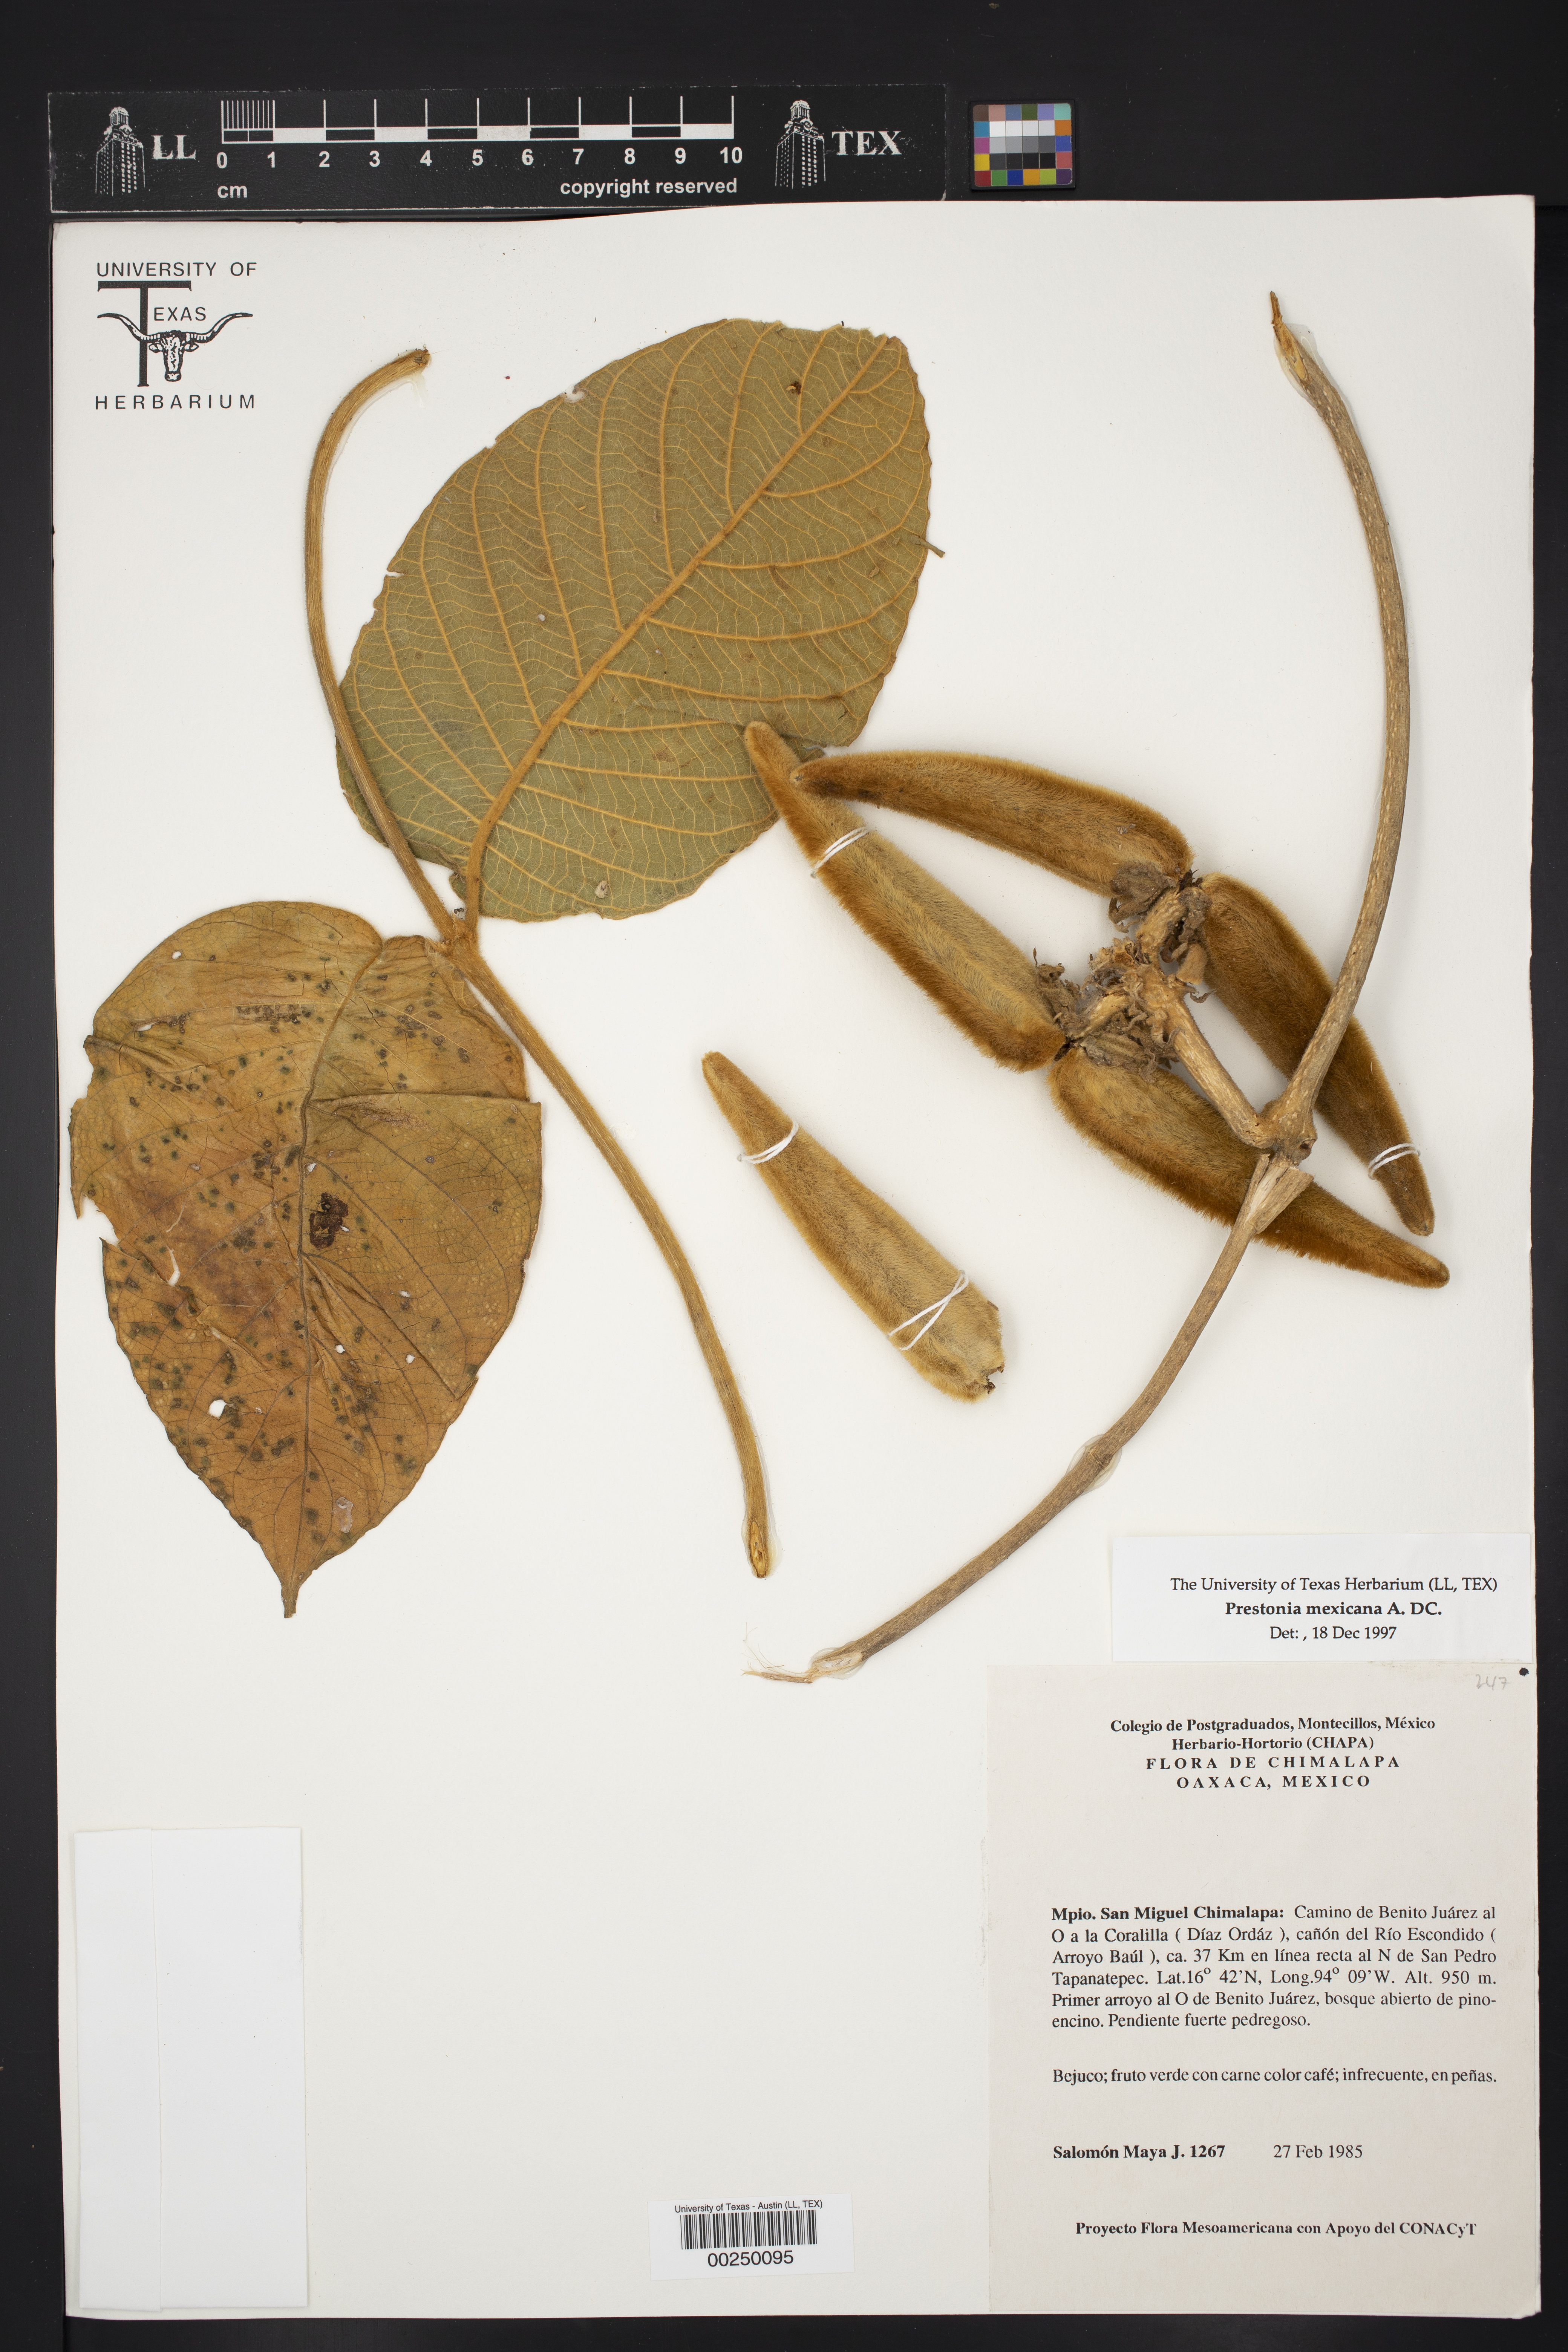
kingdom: Plantae
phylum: Tracheophyta
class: Magnoliopsida
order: Gentianales
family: Apocynaceae
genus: Prestonia
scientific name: Prestonia mexicana
